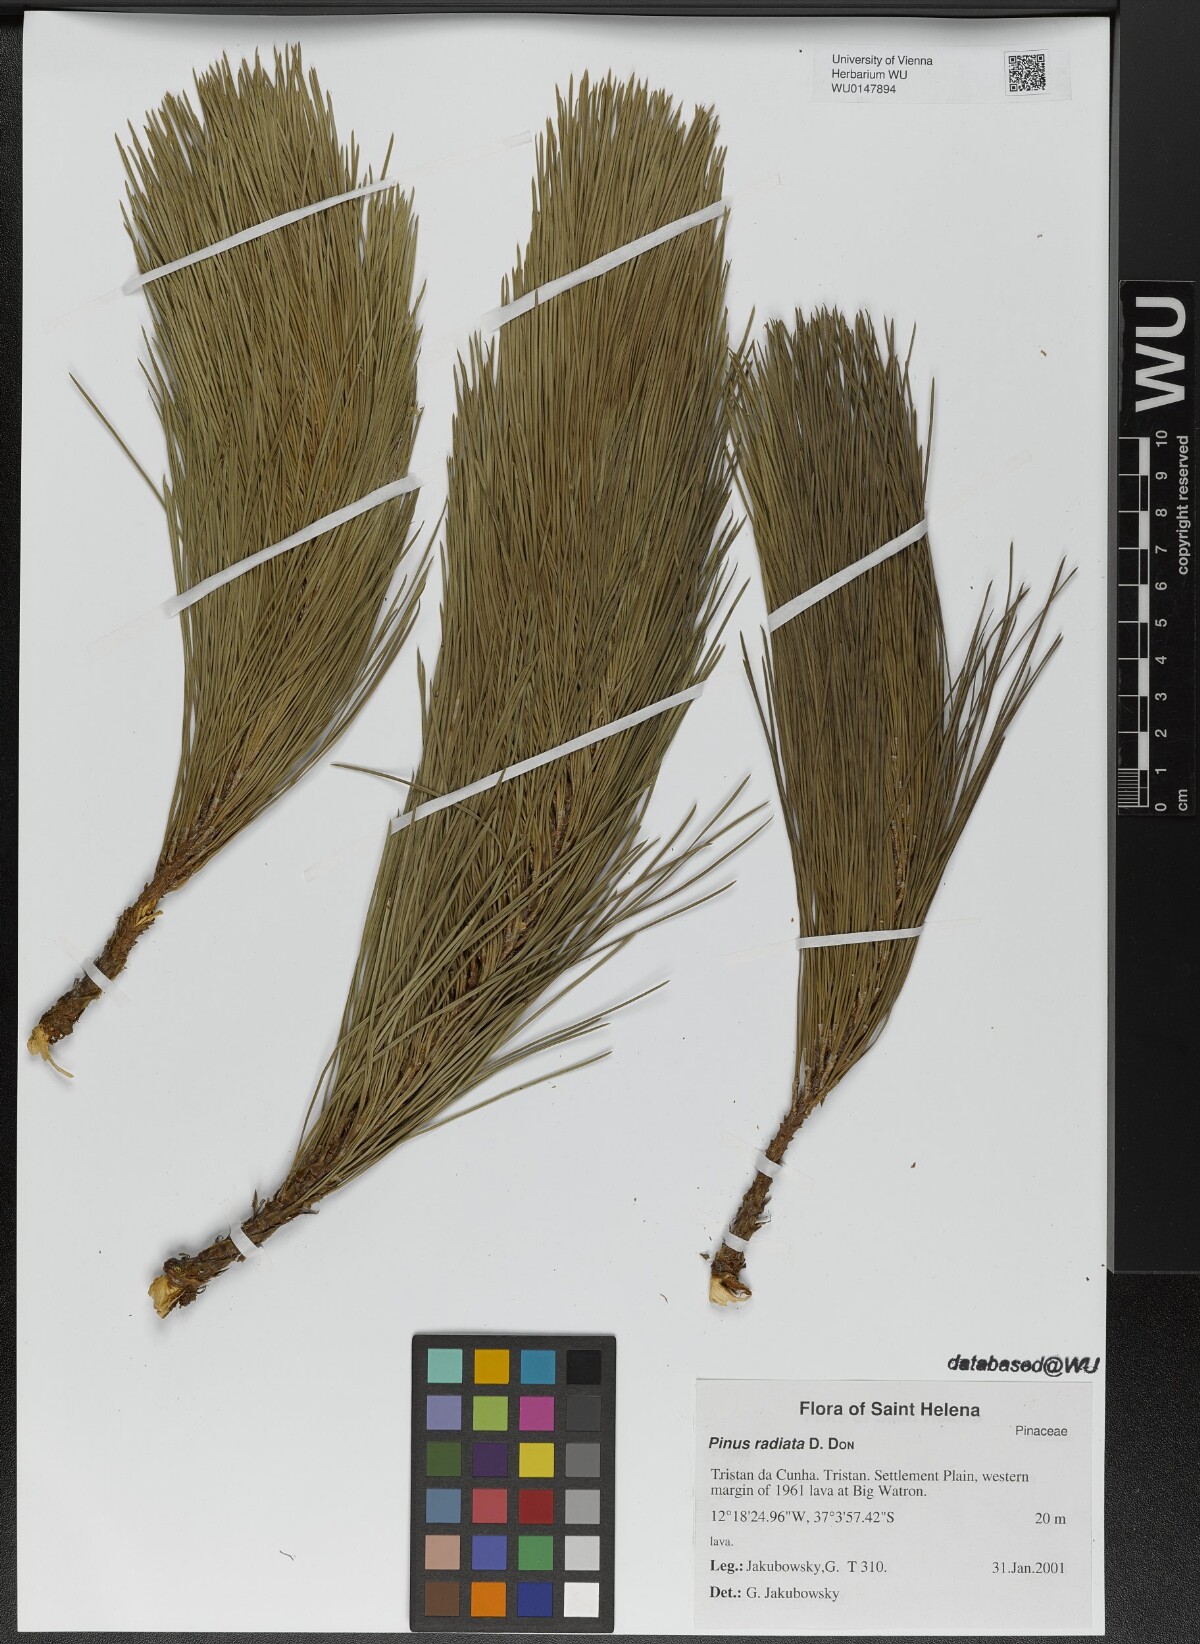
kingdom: Plantae
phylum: Tracheophyta
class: Pinopsida
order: Pinales
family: Pinaceae
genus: Pinus
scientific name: Pinus radiata
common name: Monterey pine
